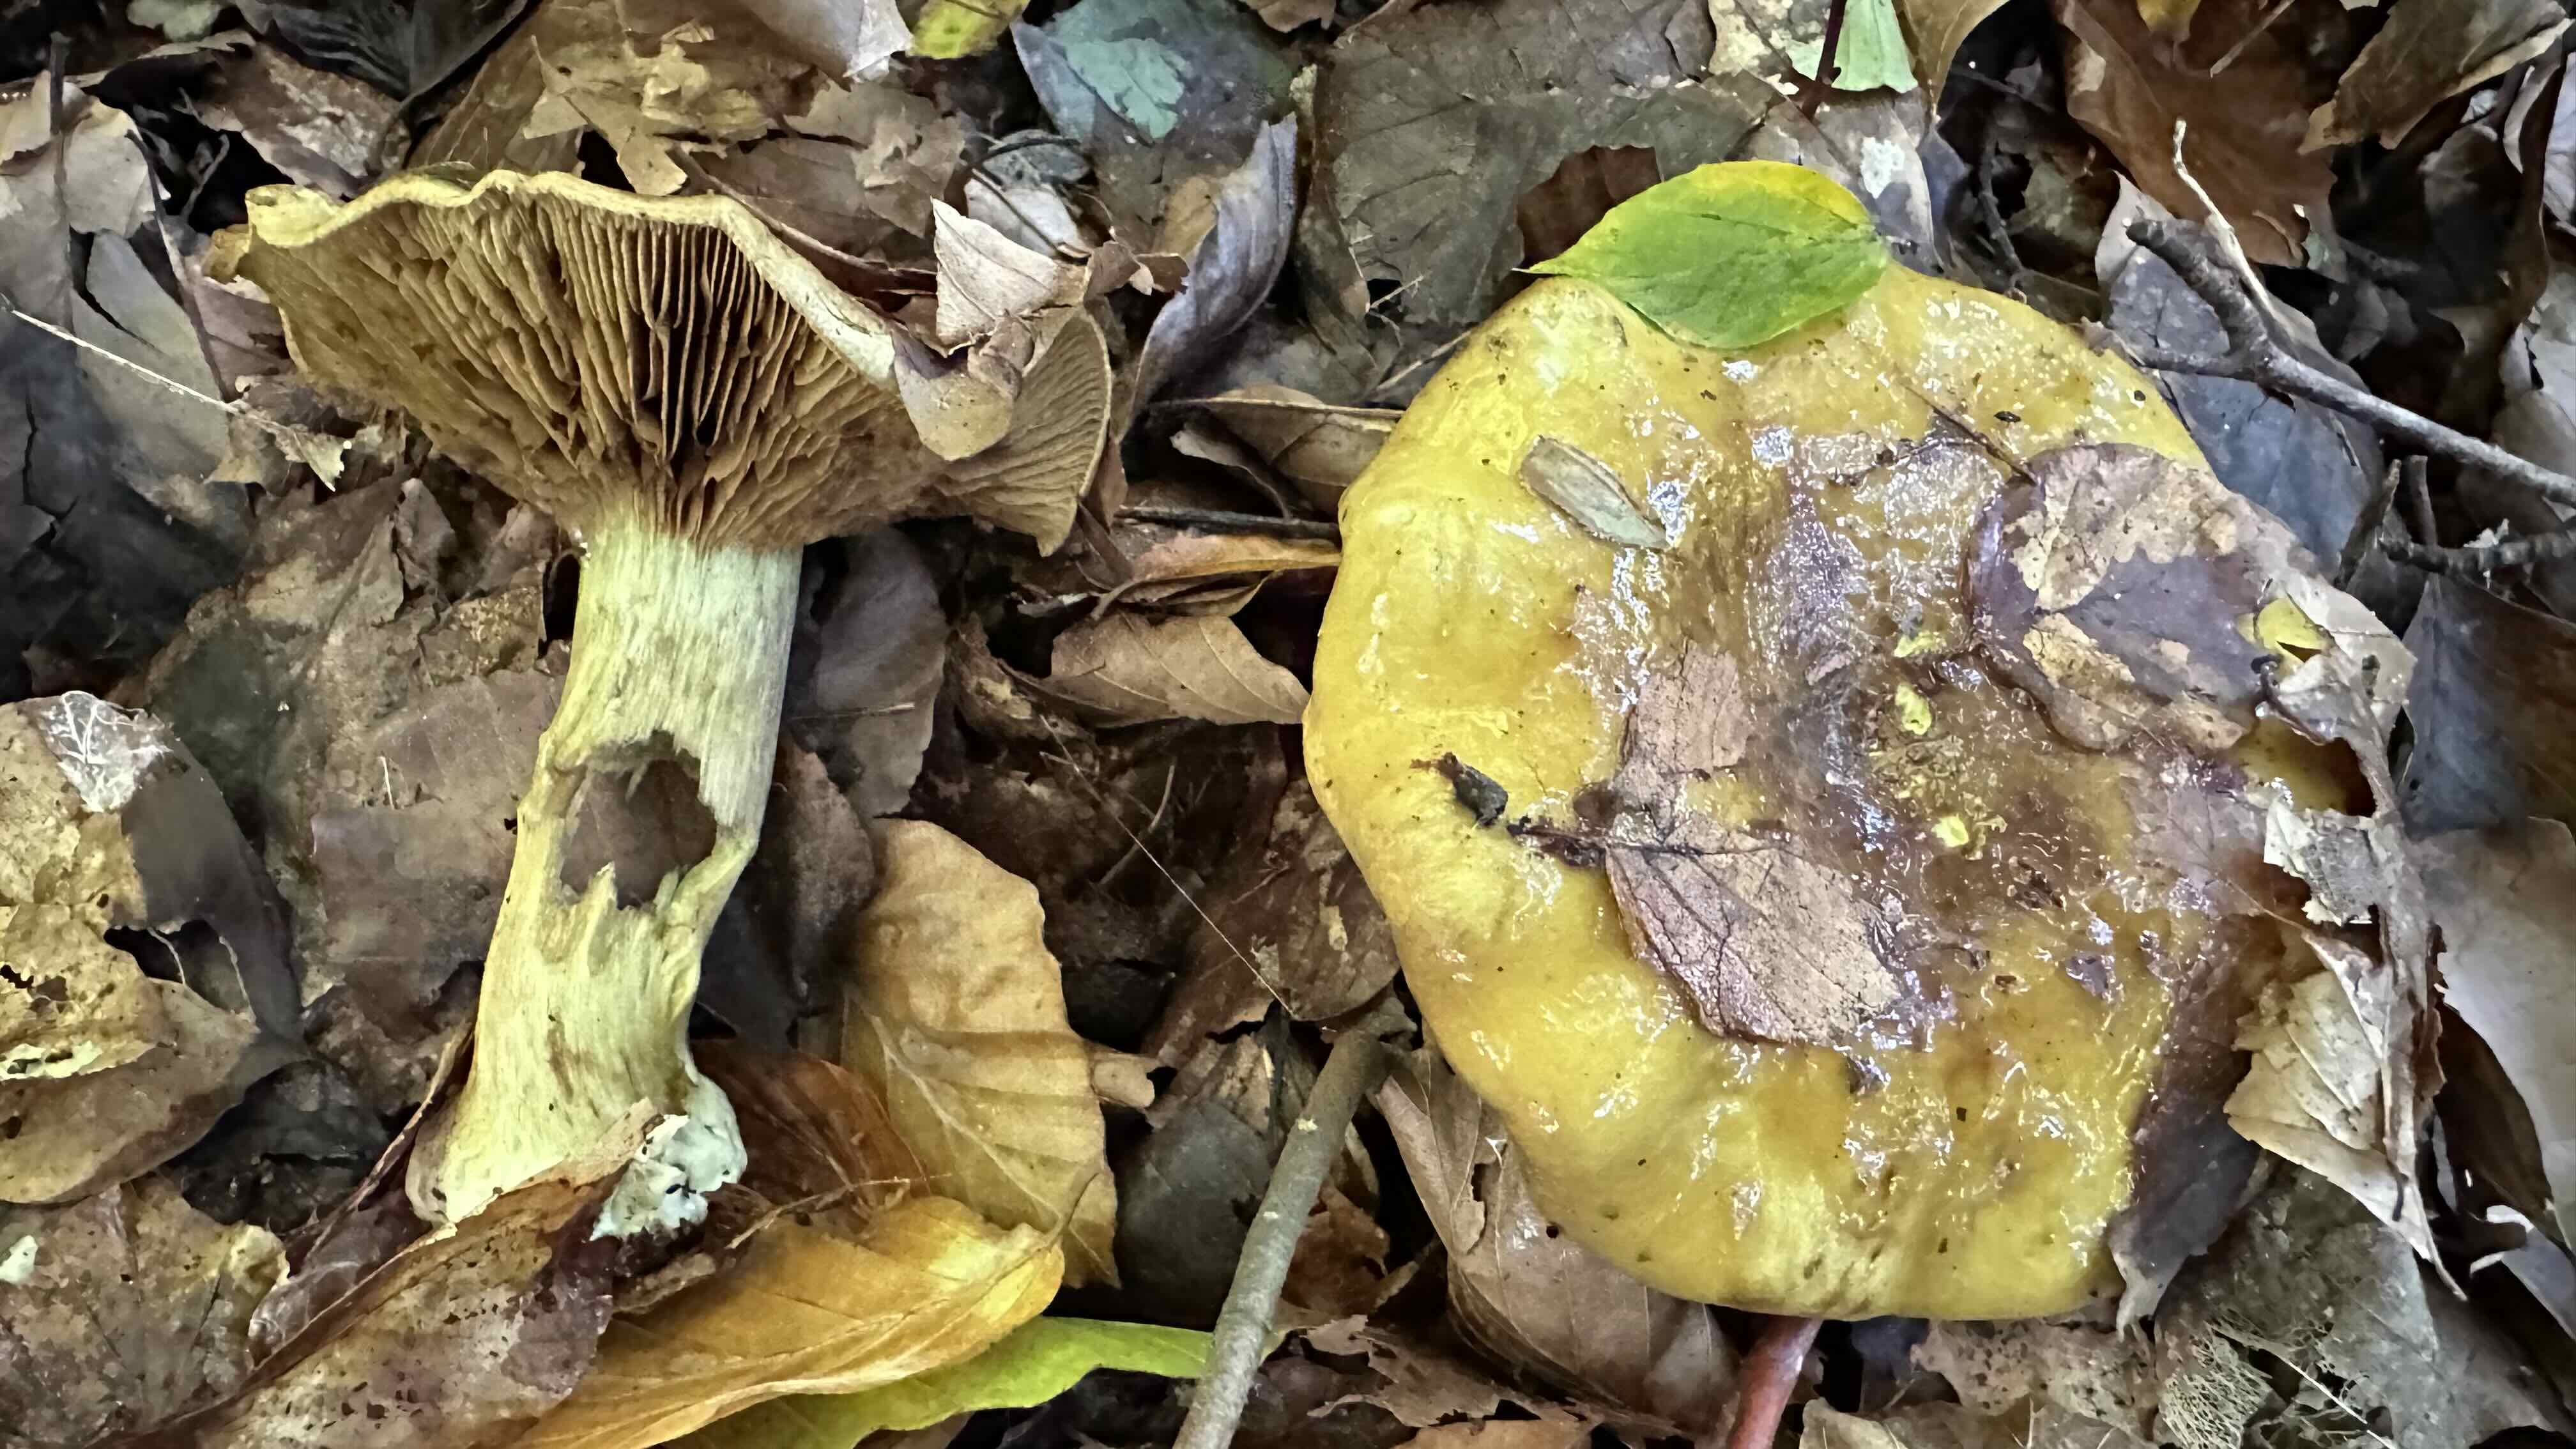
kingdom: Fungi
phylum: Basidiomycota
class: Agaricomycetes
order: Agaricales
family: Cortinariaceae
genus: Calonarius
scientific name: Calonarius citrinus
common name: citrongul slørhat
